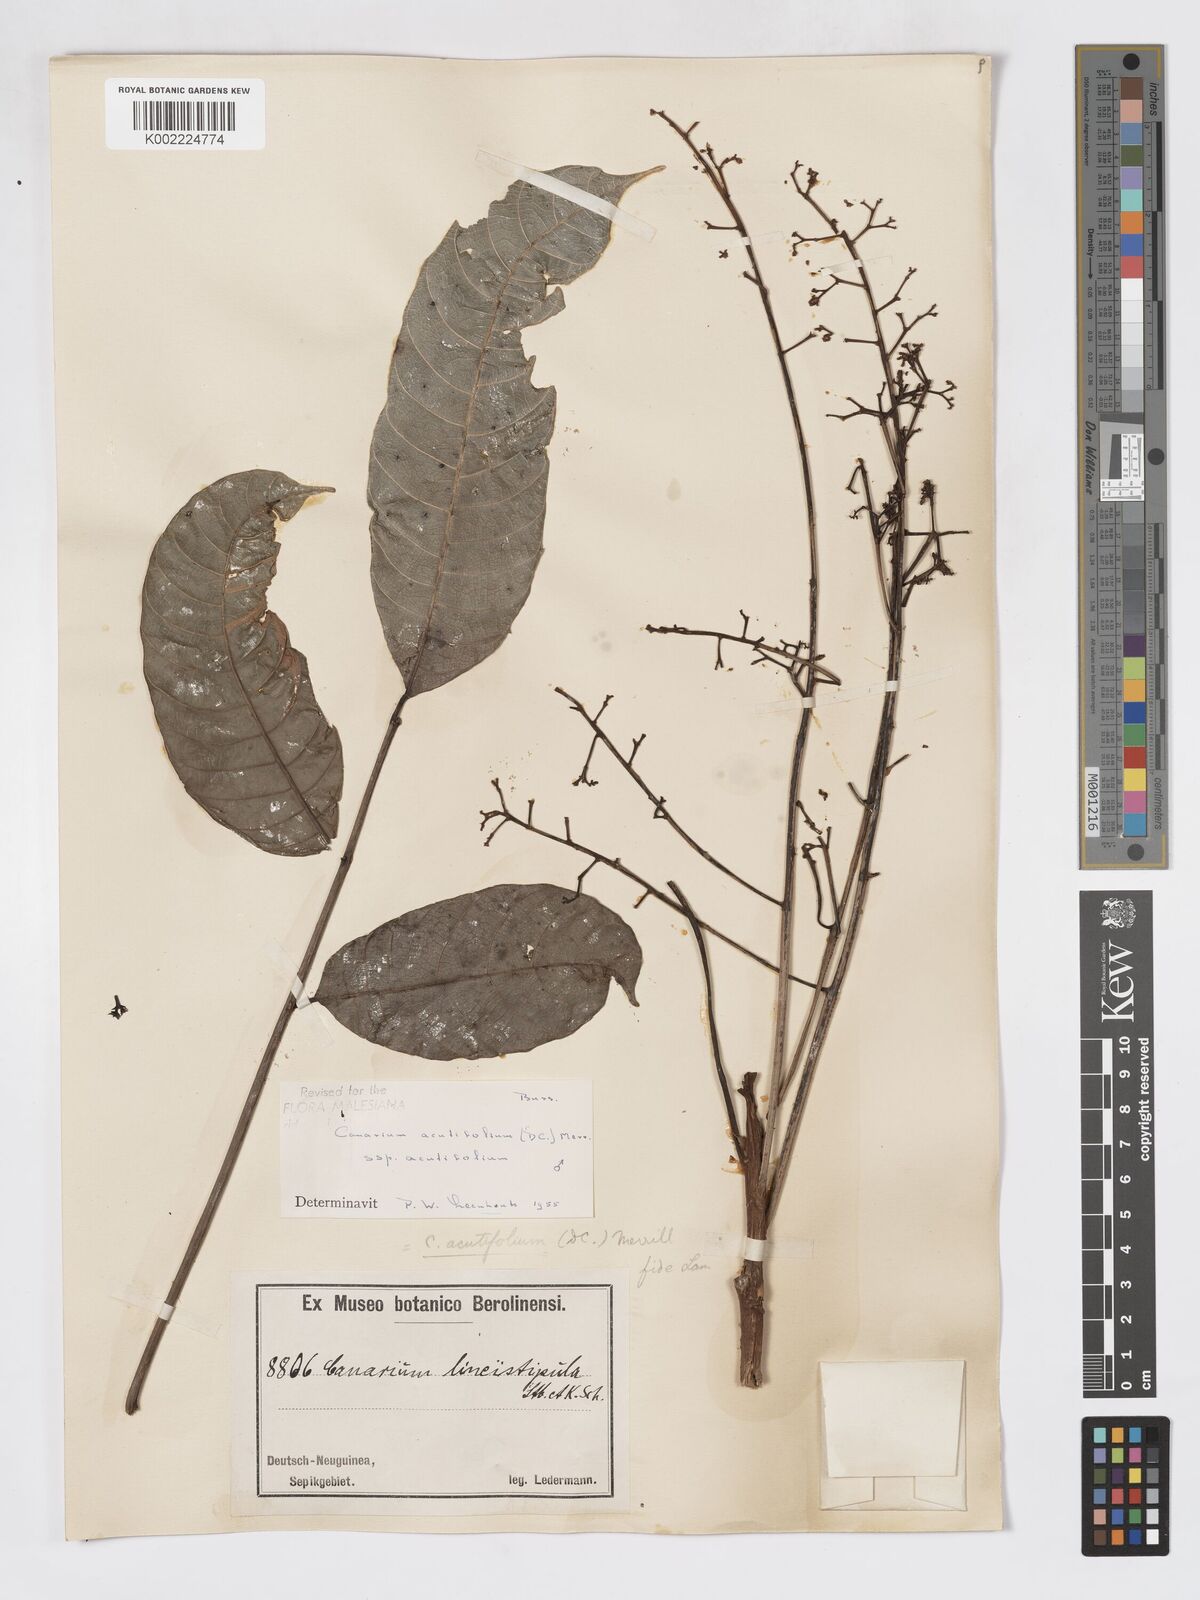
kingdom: Plantae
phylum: Tracheophyta
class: Magnoliopsida
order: Sapindales
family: Burseraceae
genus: Canarium
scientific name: Canarium acutifolium
